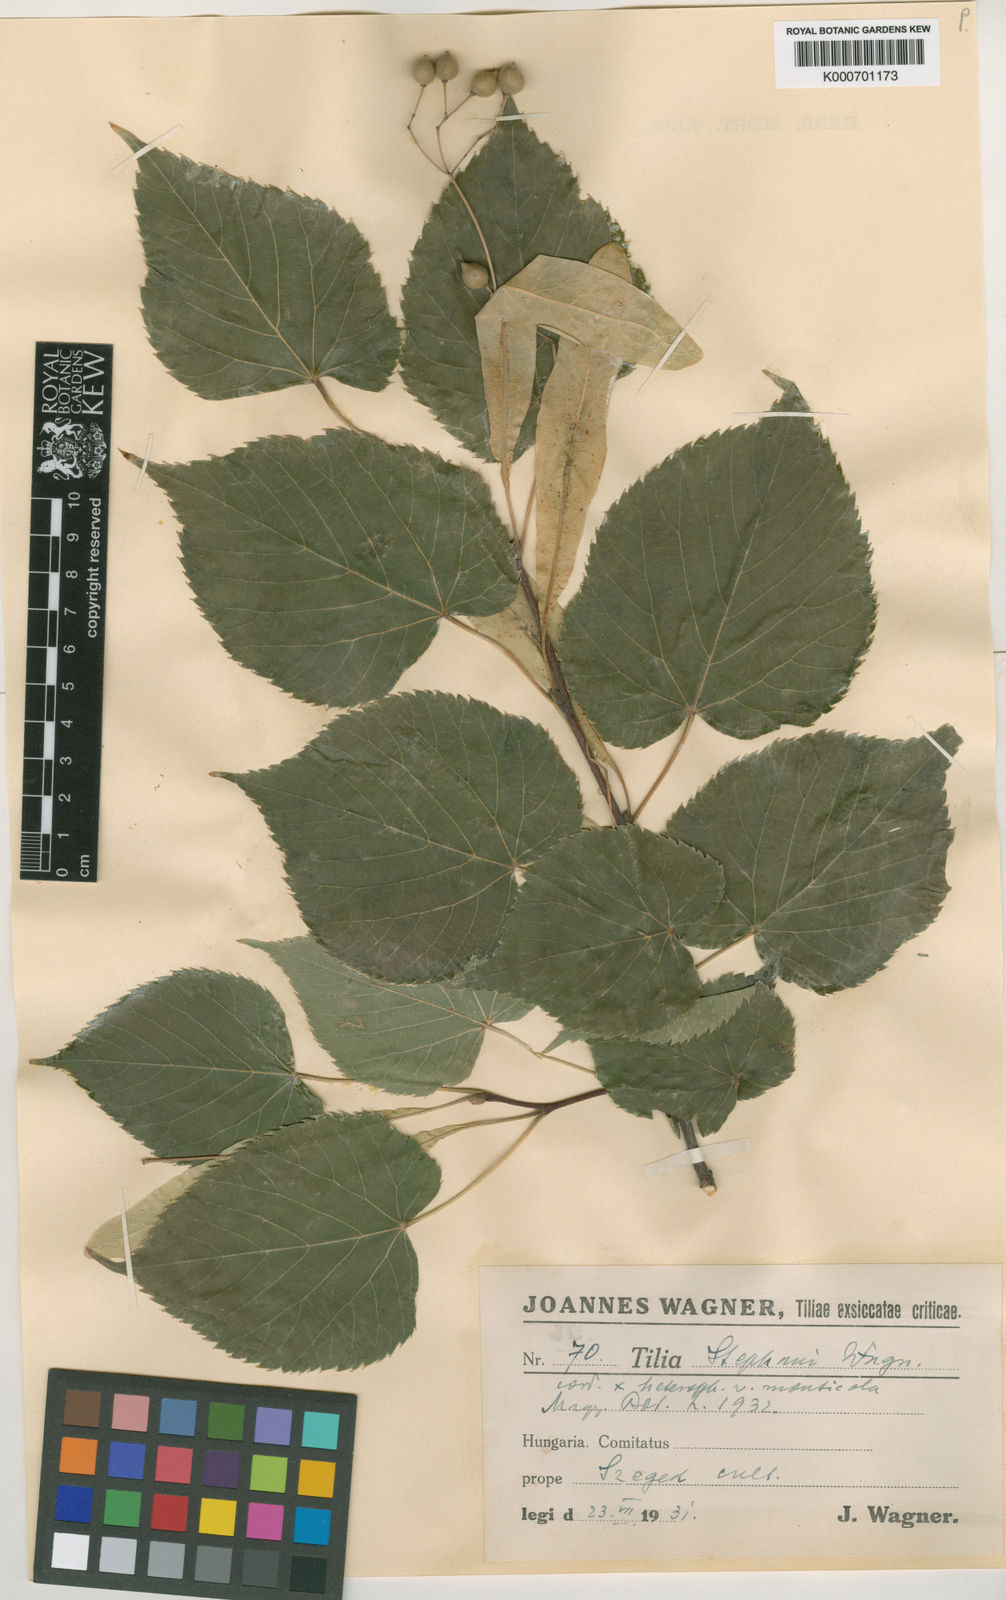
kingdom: Plantae
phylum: Tracheophyta
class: Magnoliopsida
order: Malvales
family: Malvaceae
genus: Tilia
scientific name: Tilia
